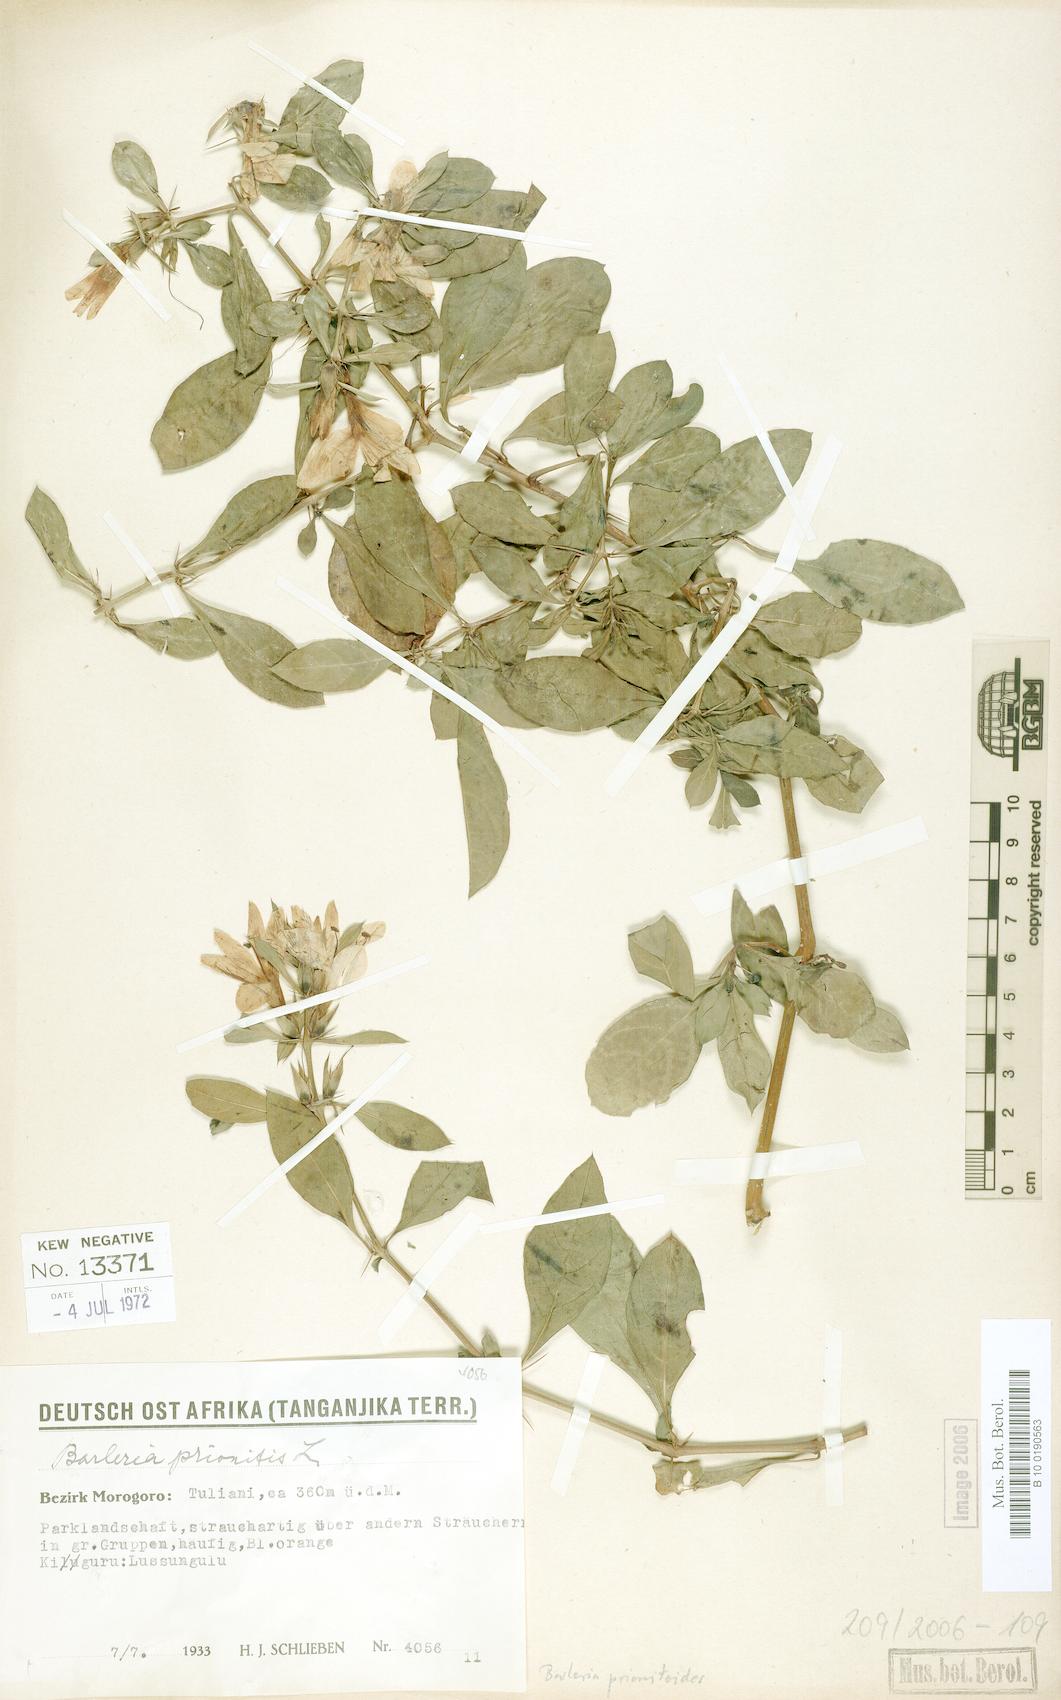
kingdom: Plantae
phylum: Tracheophyta
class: Magnoliopsida
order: Lamiales
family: Acanthaceae
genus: Barleria
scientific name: Barleria prionitis
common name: Barleria
